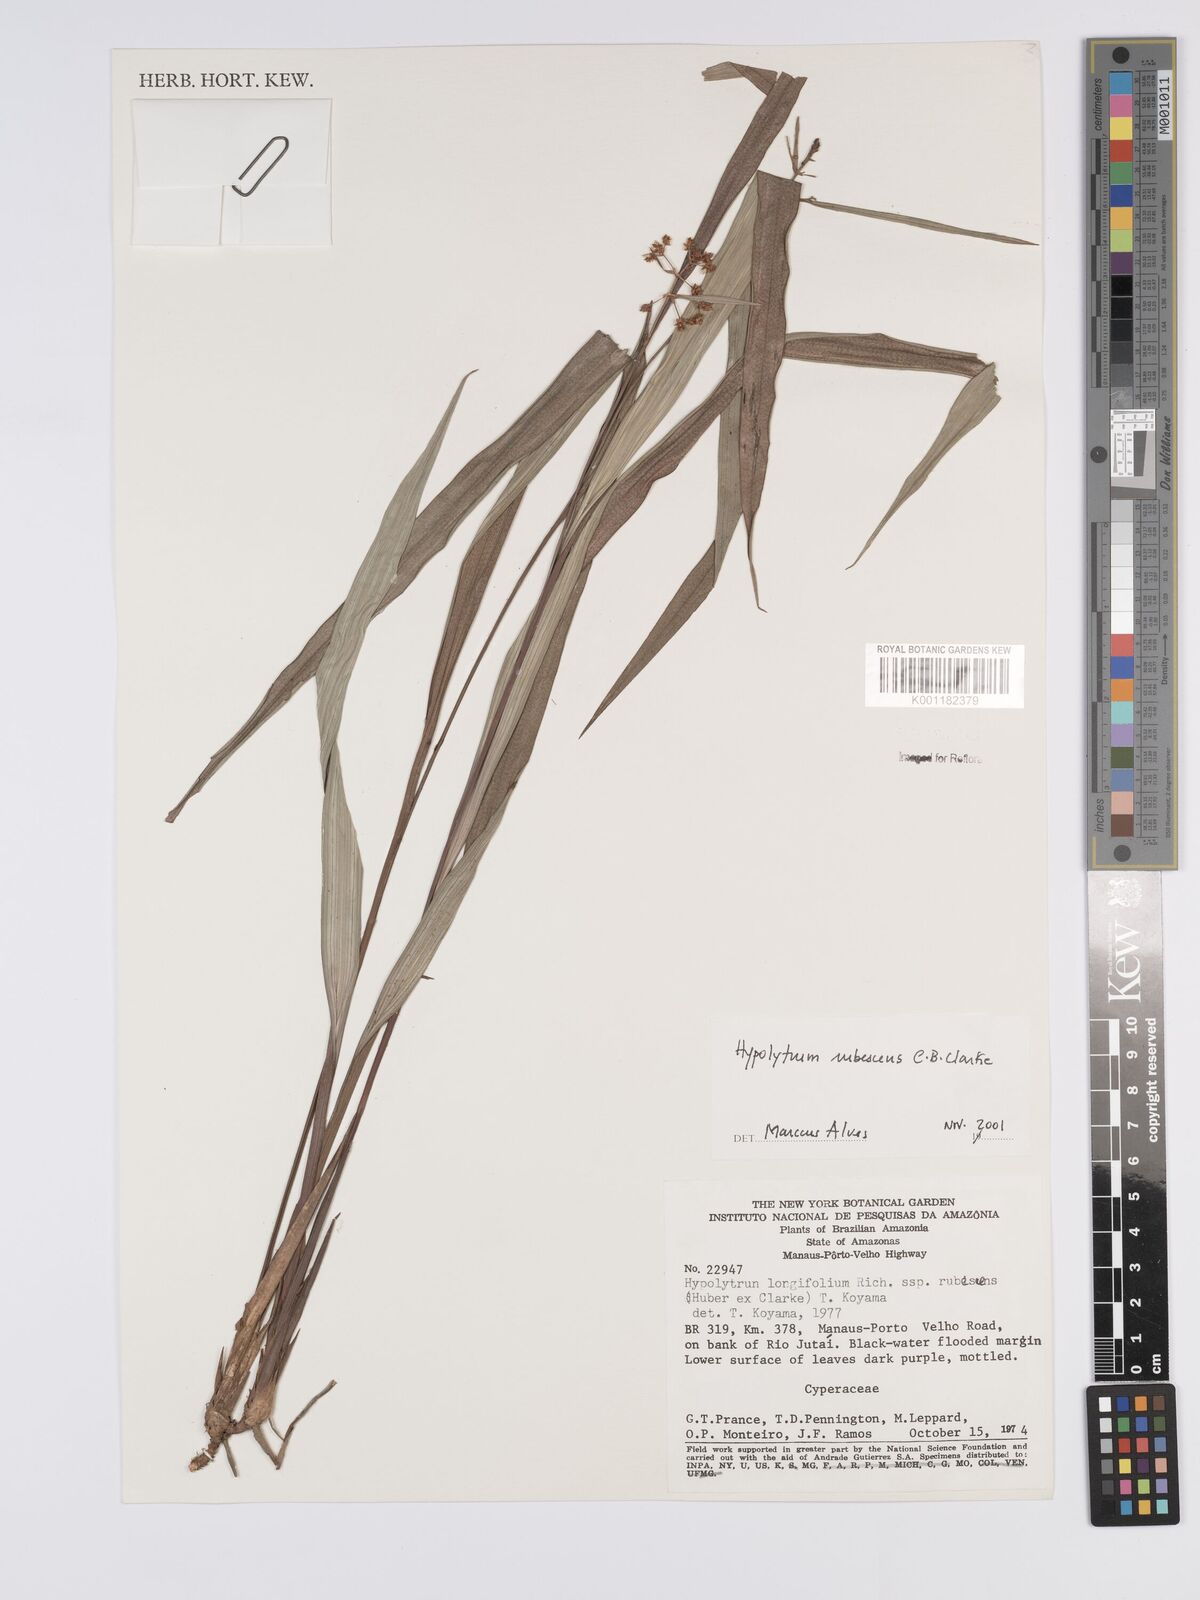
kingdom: Plantae
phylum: Tracheophyta
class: Liliopsida
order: Poales
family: Cyperaceae
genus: Hypolytrum
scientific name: Hypolytrum longifolium
